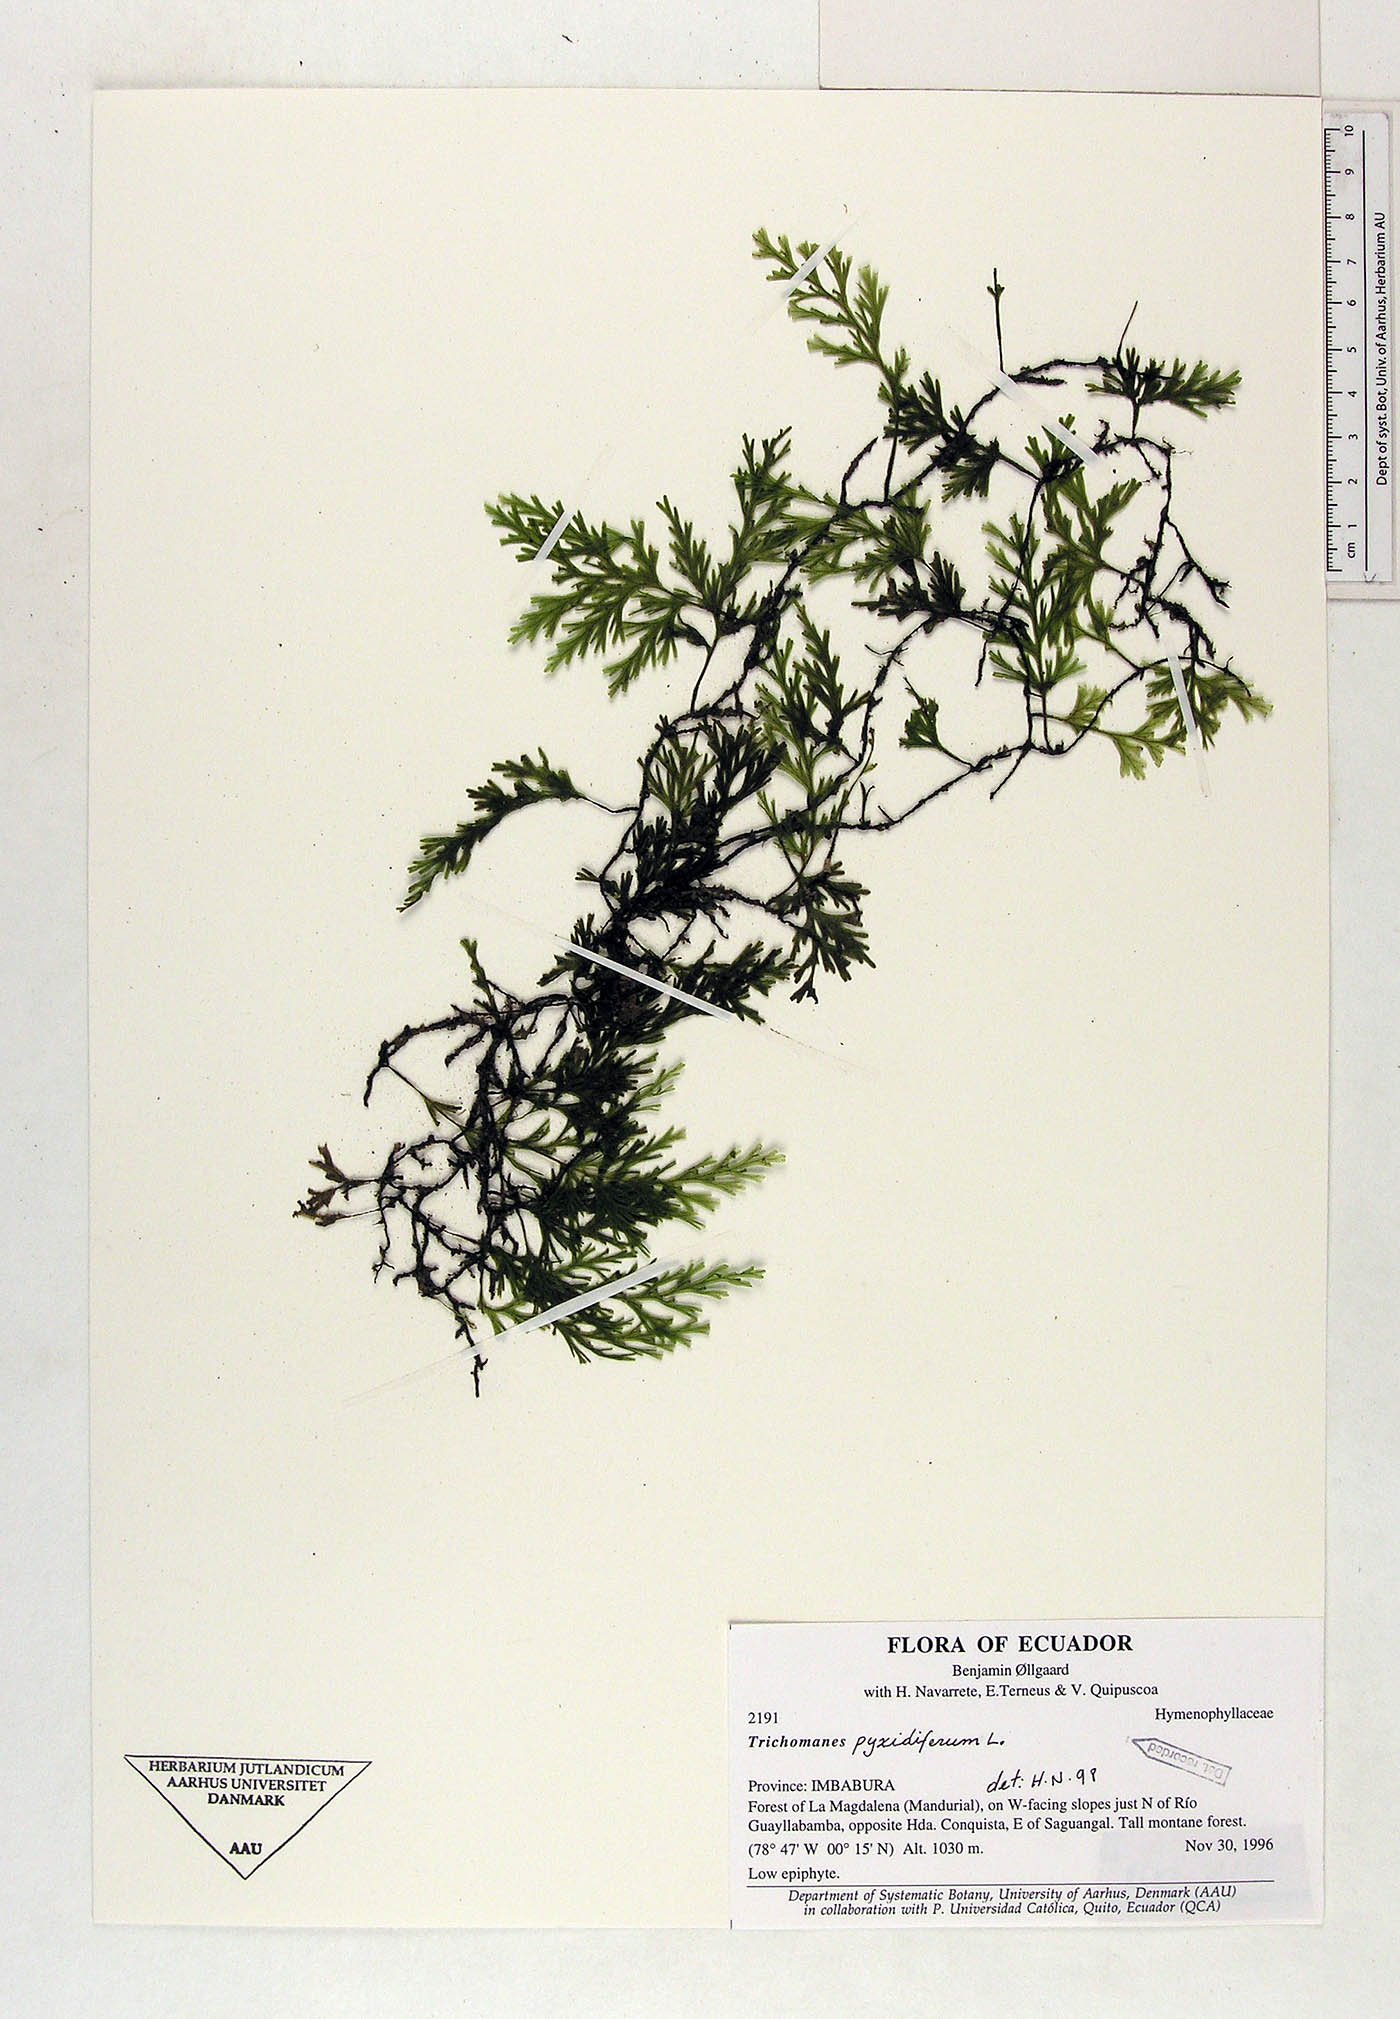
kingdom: Plantae
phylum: Tracheophyta
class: Polypodiopsida
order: Hymenophyllales
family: Hymenophyllaceae
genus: Polyphlebium
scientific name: Polyphlebium pyxidiferum
